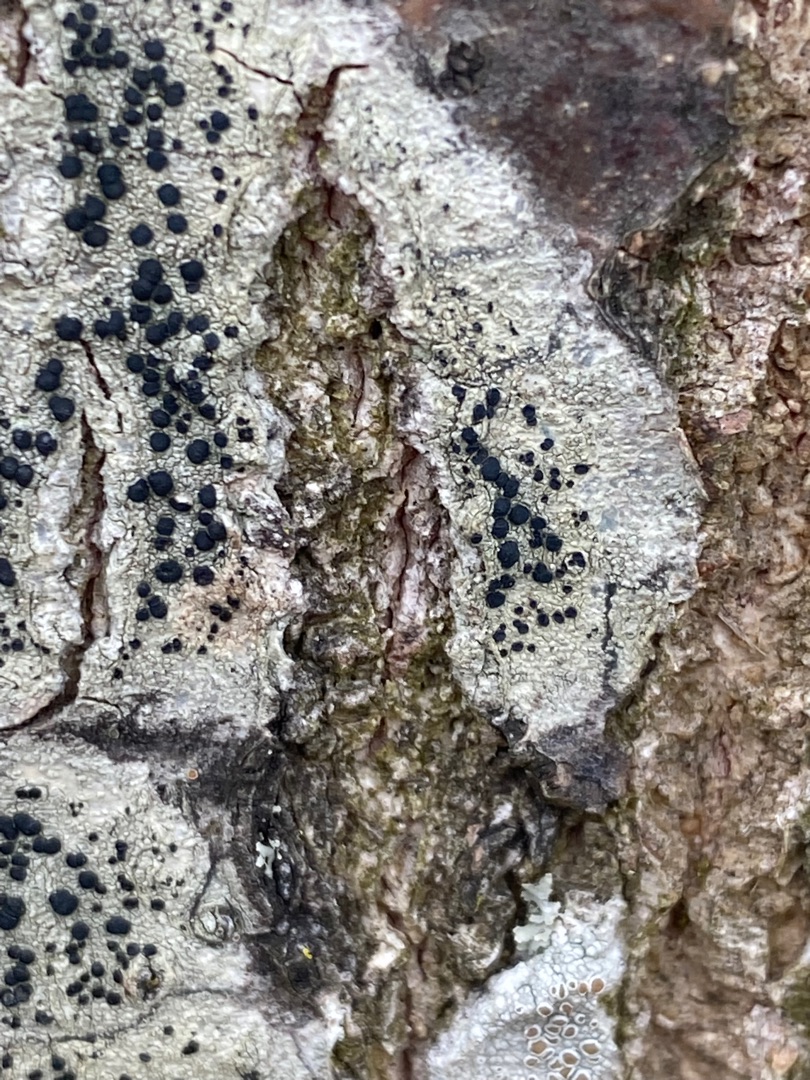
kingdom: Fungi
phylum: Ascomycota
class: Lecanoromycetes
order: Lecanorales
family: Lecanoraceae
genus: Lecidella
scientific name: Lecidella elaeochroma
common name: Grågrøn skivelav
